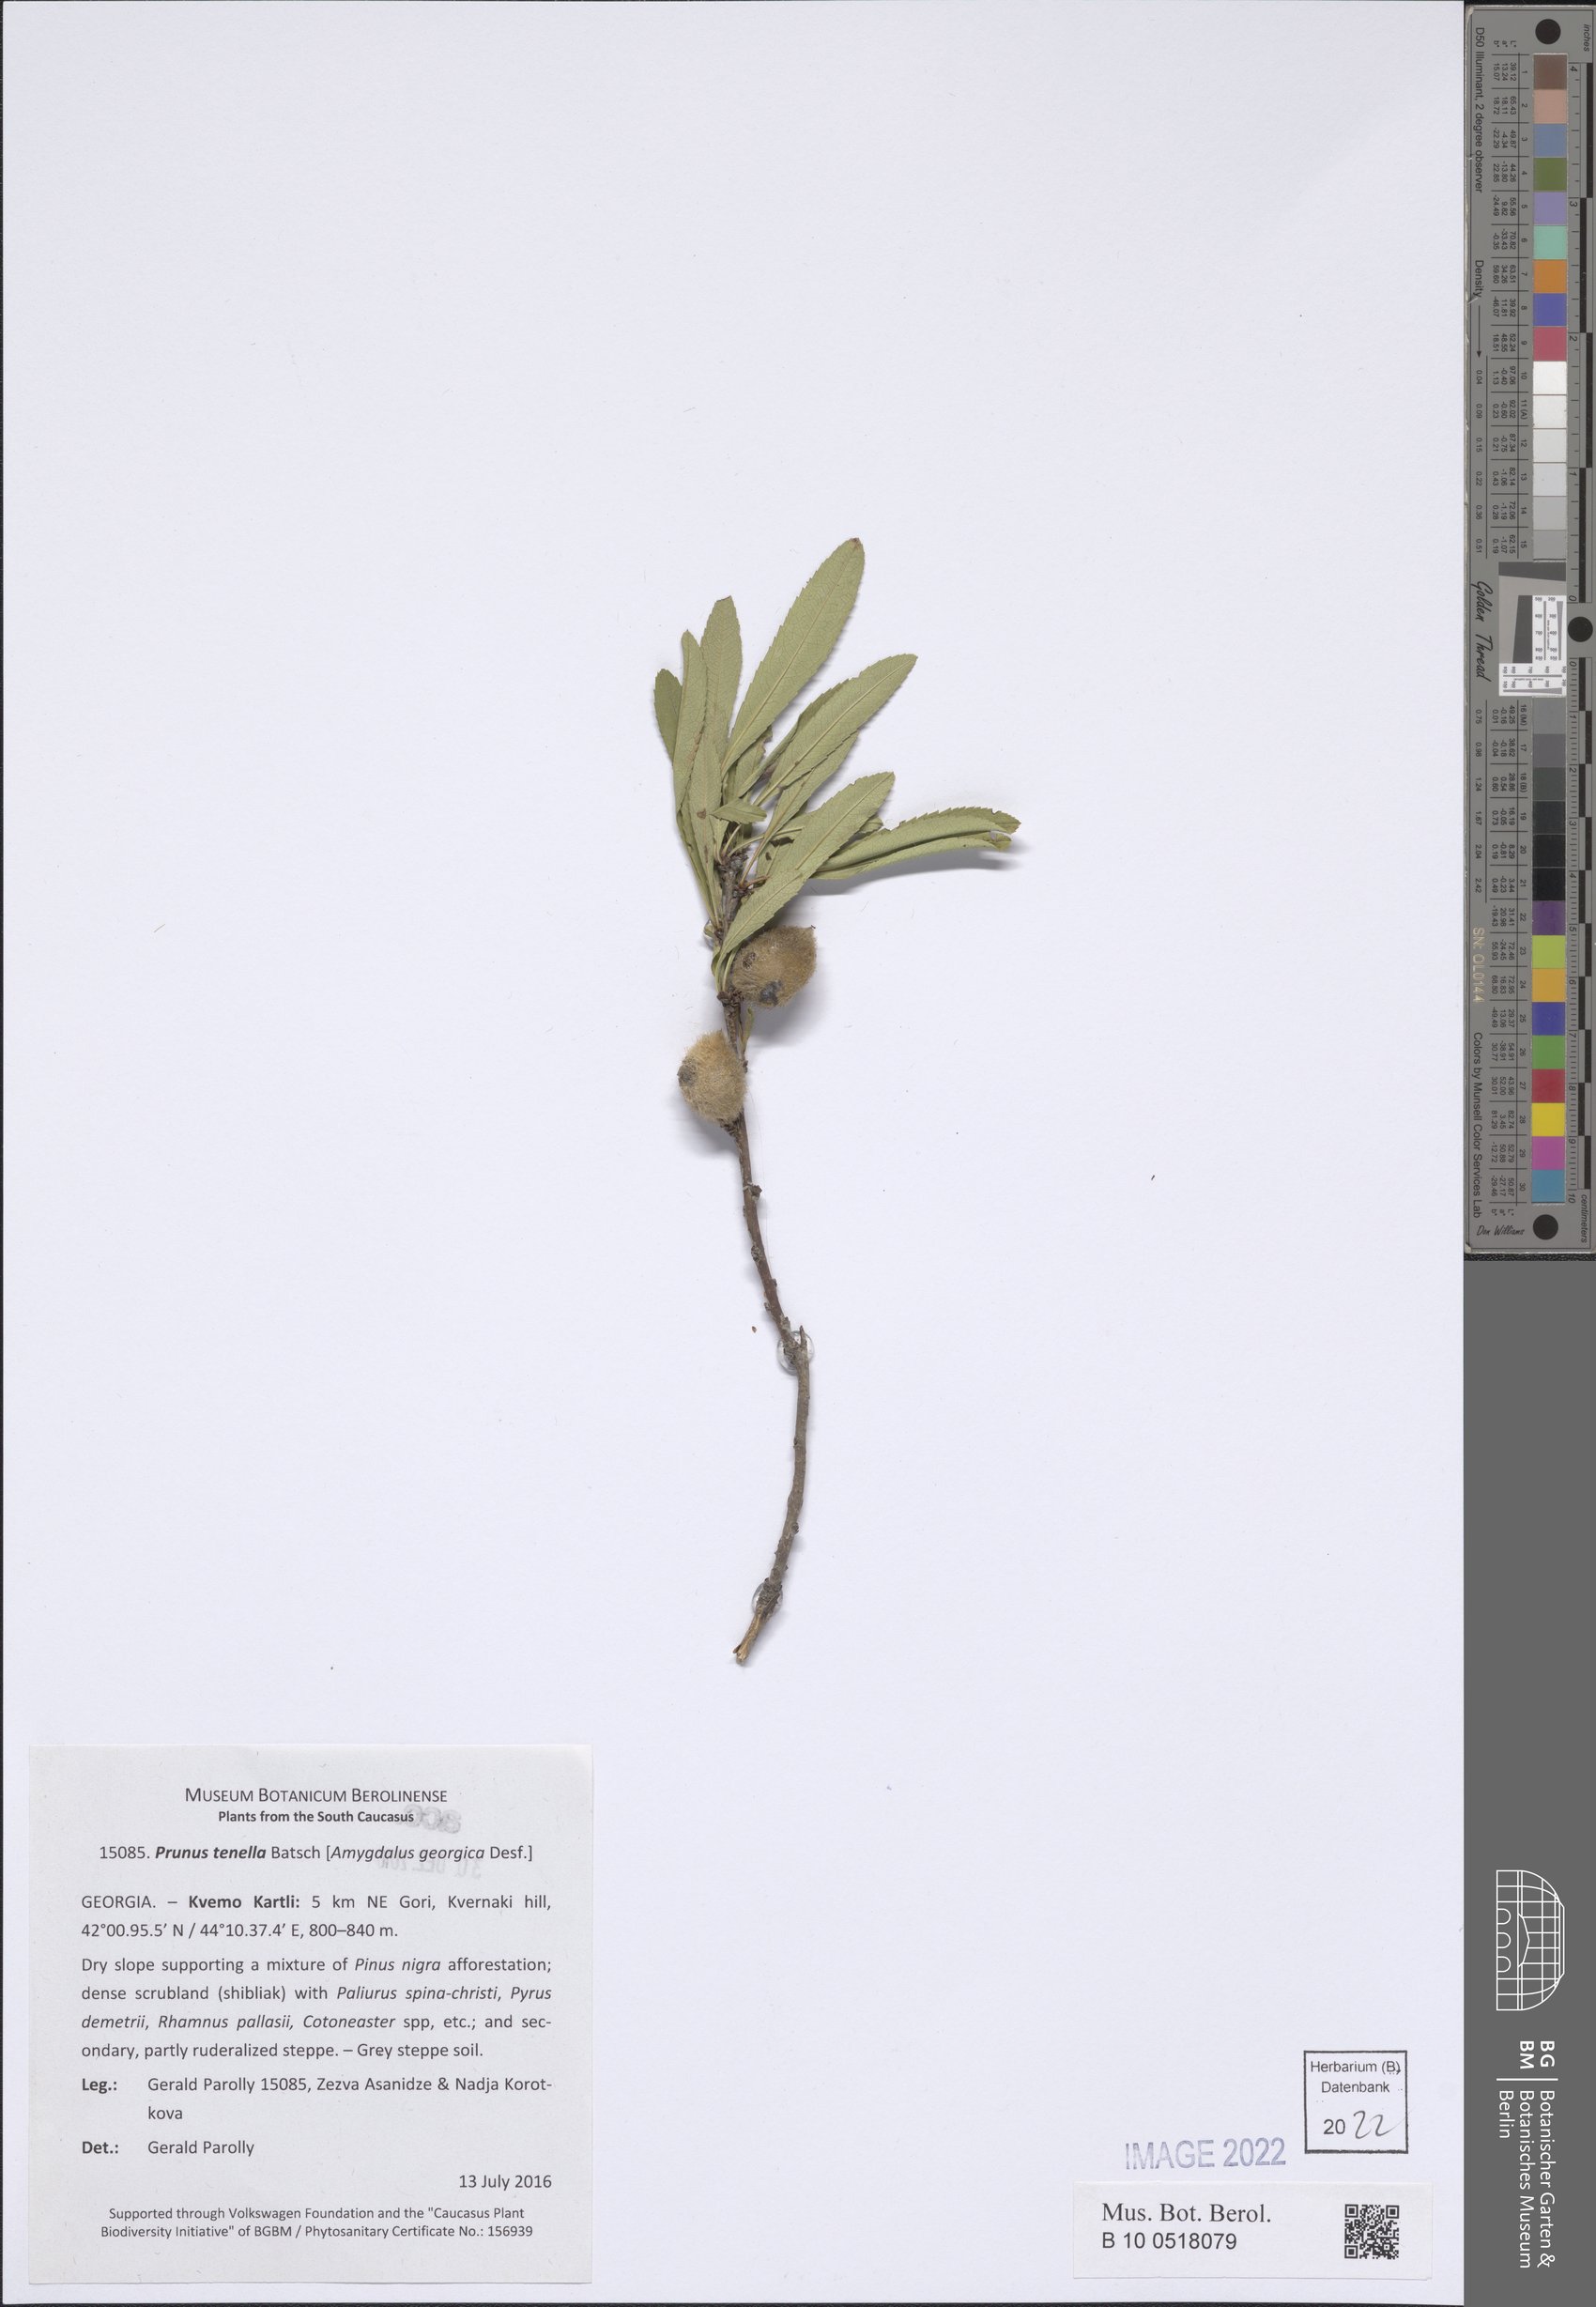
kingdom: Plantae
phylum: Tracheophyta
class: Magnoliopsida
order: Rosales
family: Rosaceae
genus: Prunus
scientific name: Prunus tenella
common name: Dwarf russian almond
